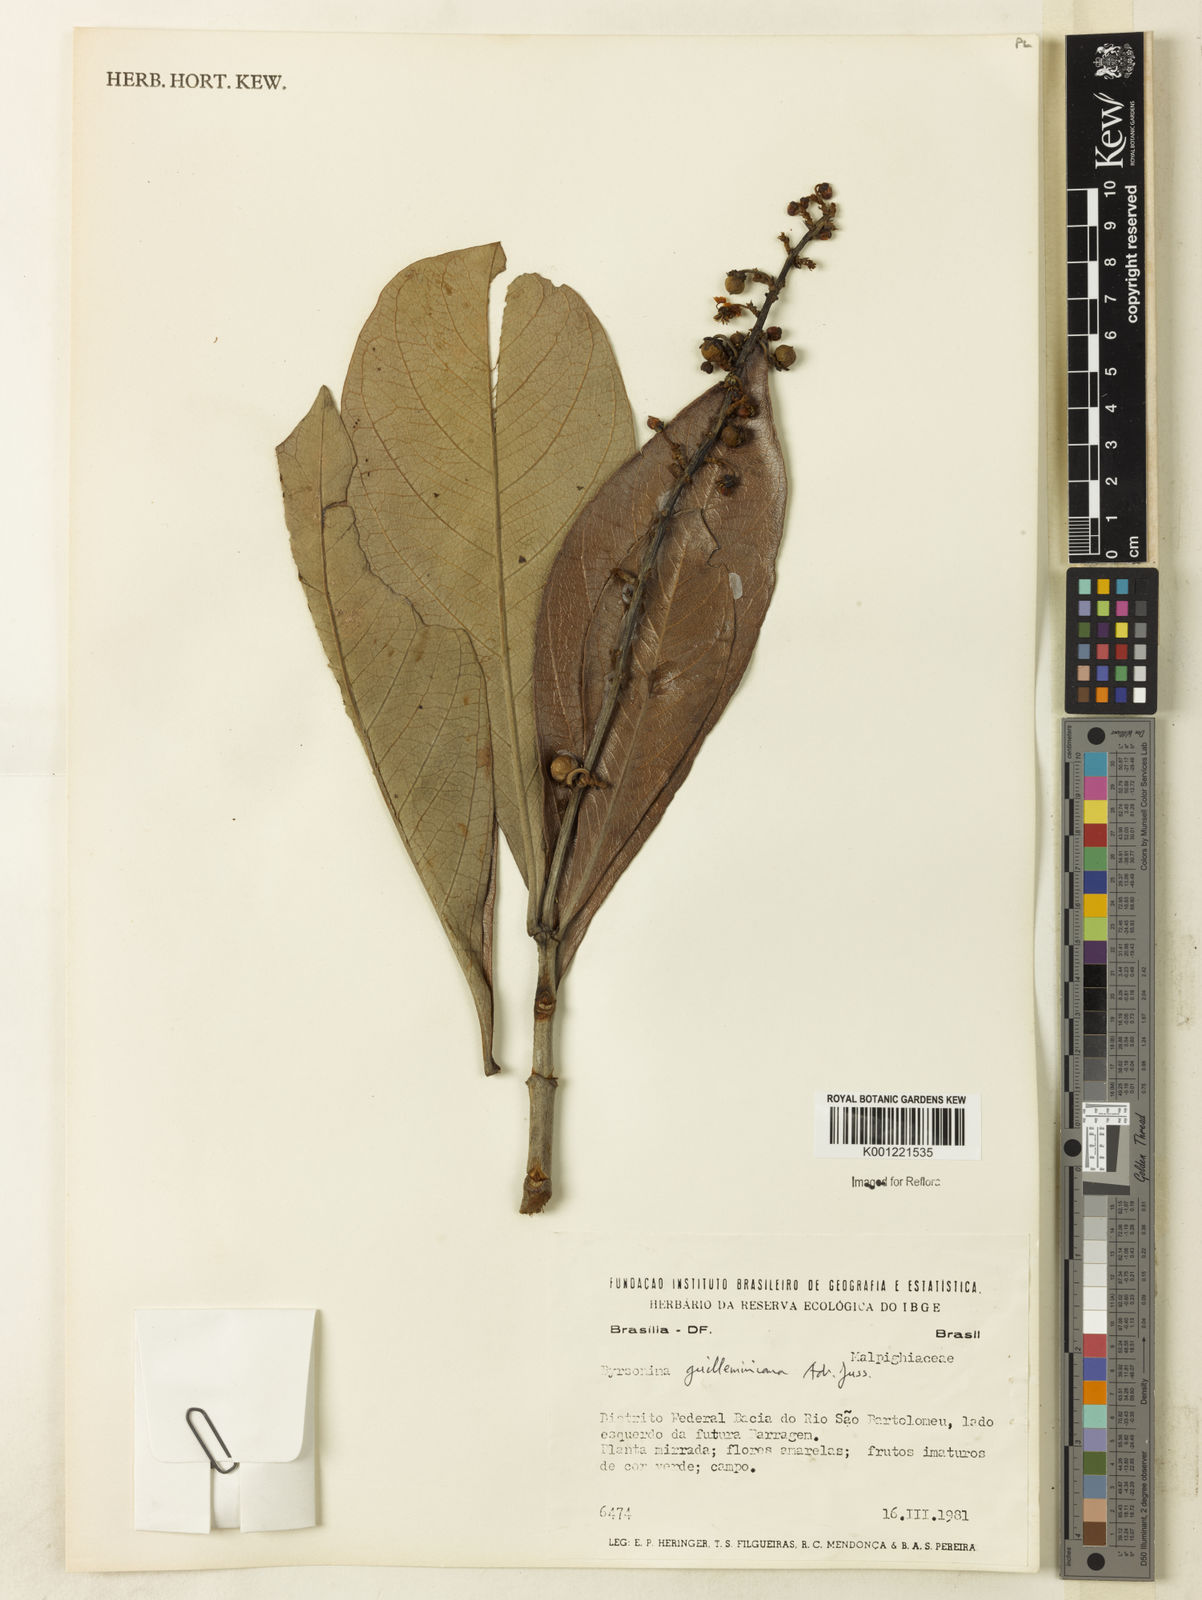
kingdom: Plantae
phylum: Tracheophyta
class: Magnoliopsida
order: Malpighiales
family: Malpighiaceae
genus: Byrsonima
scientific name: Byrsonima guilleminiana
